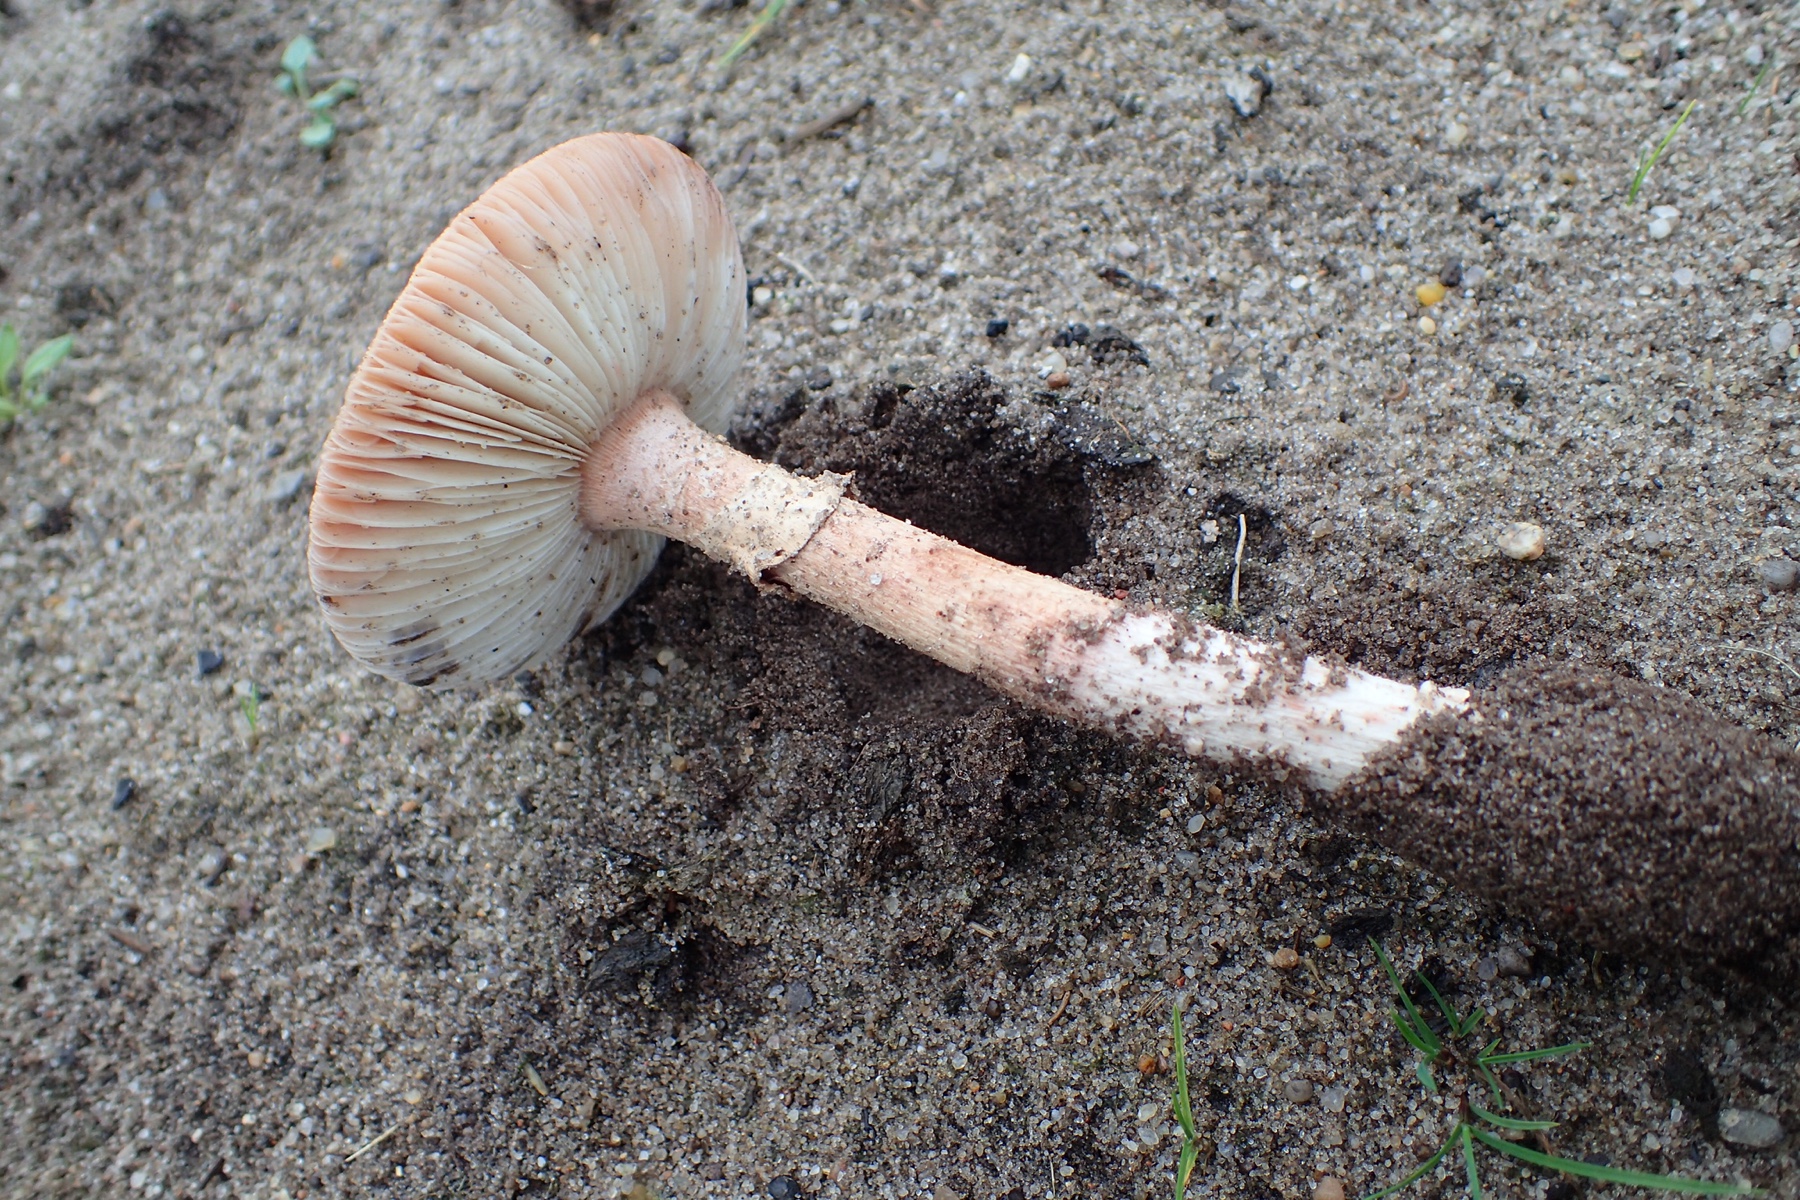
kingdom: Fungi
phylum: Basidiomycota
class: Agaricomycetes
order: Agaricales
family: Amanitaceae
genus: Amanita
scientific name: Amanita rubescens
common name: rødmende fluesvamp
